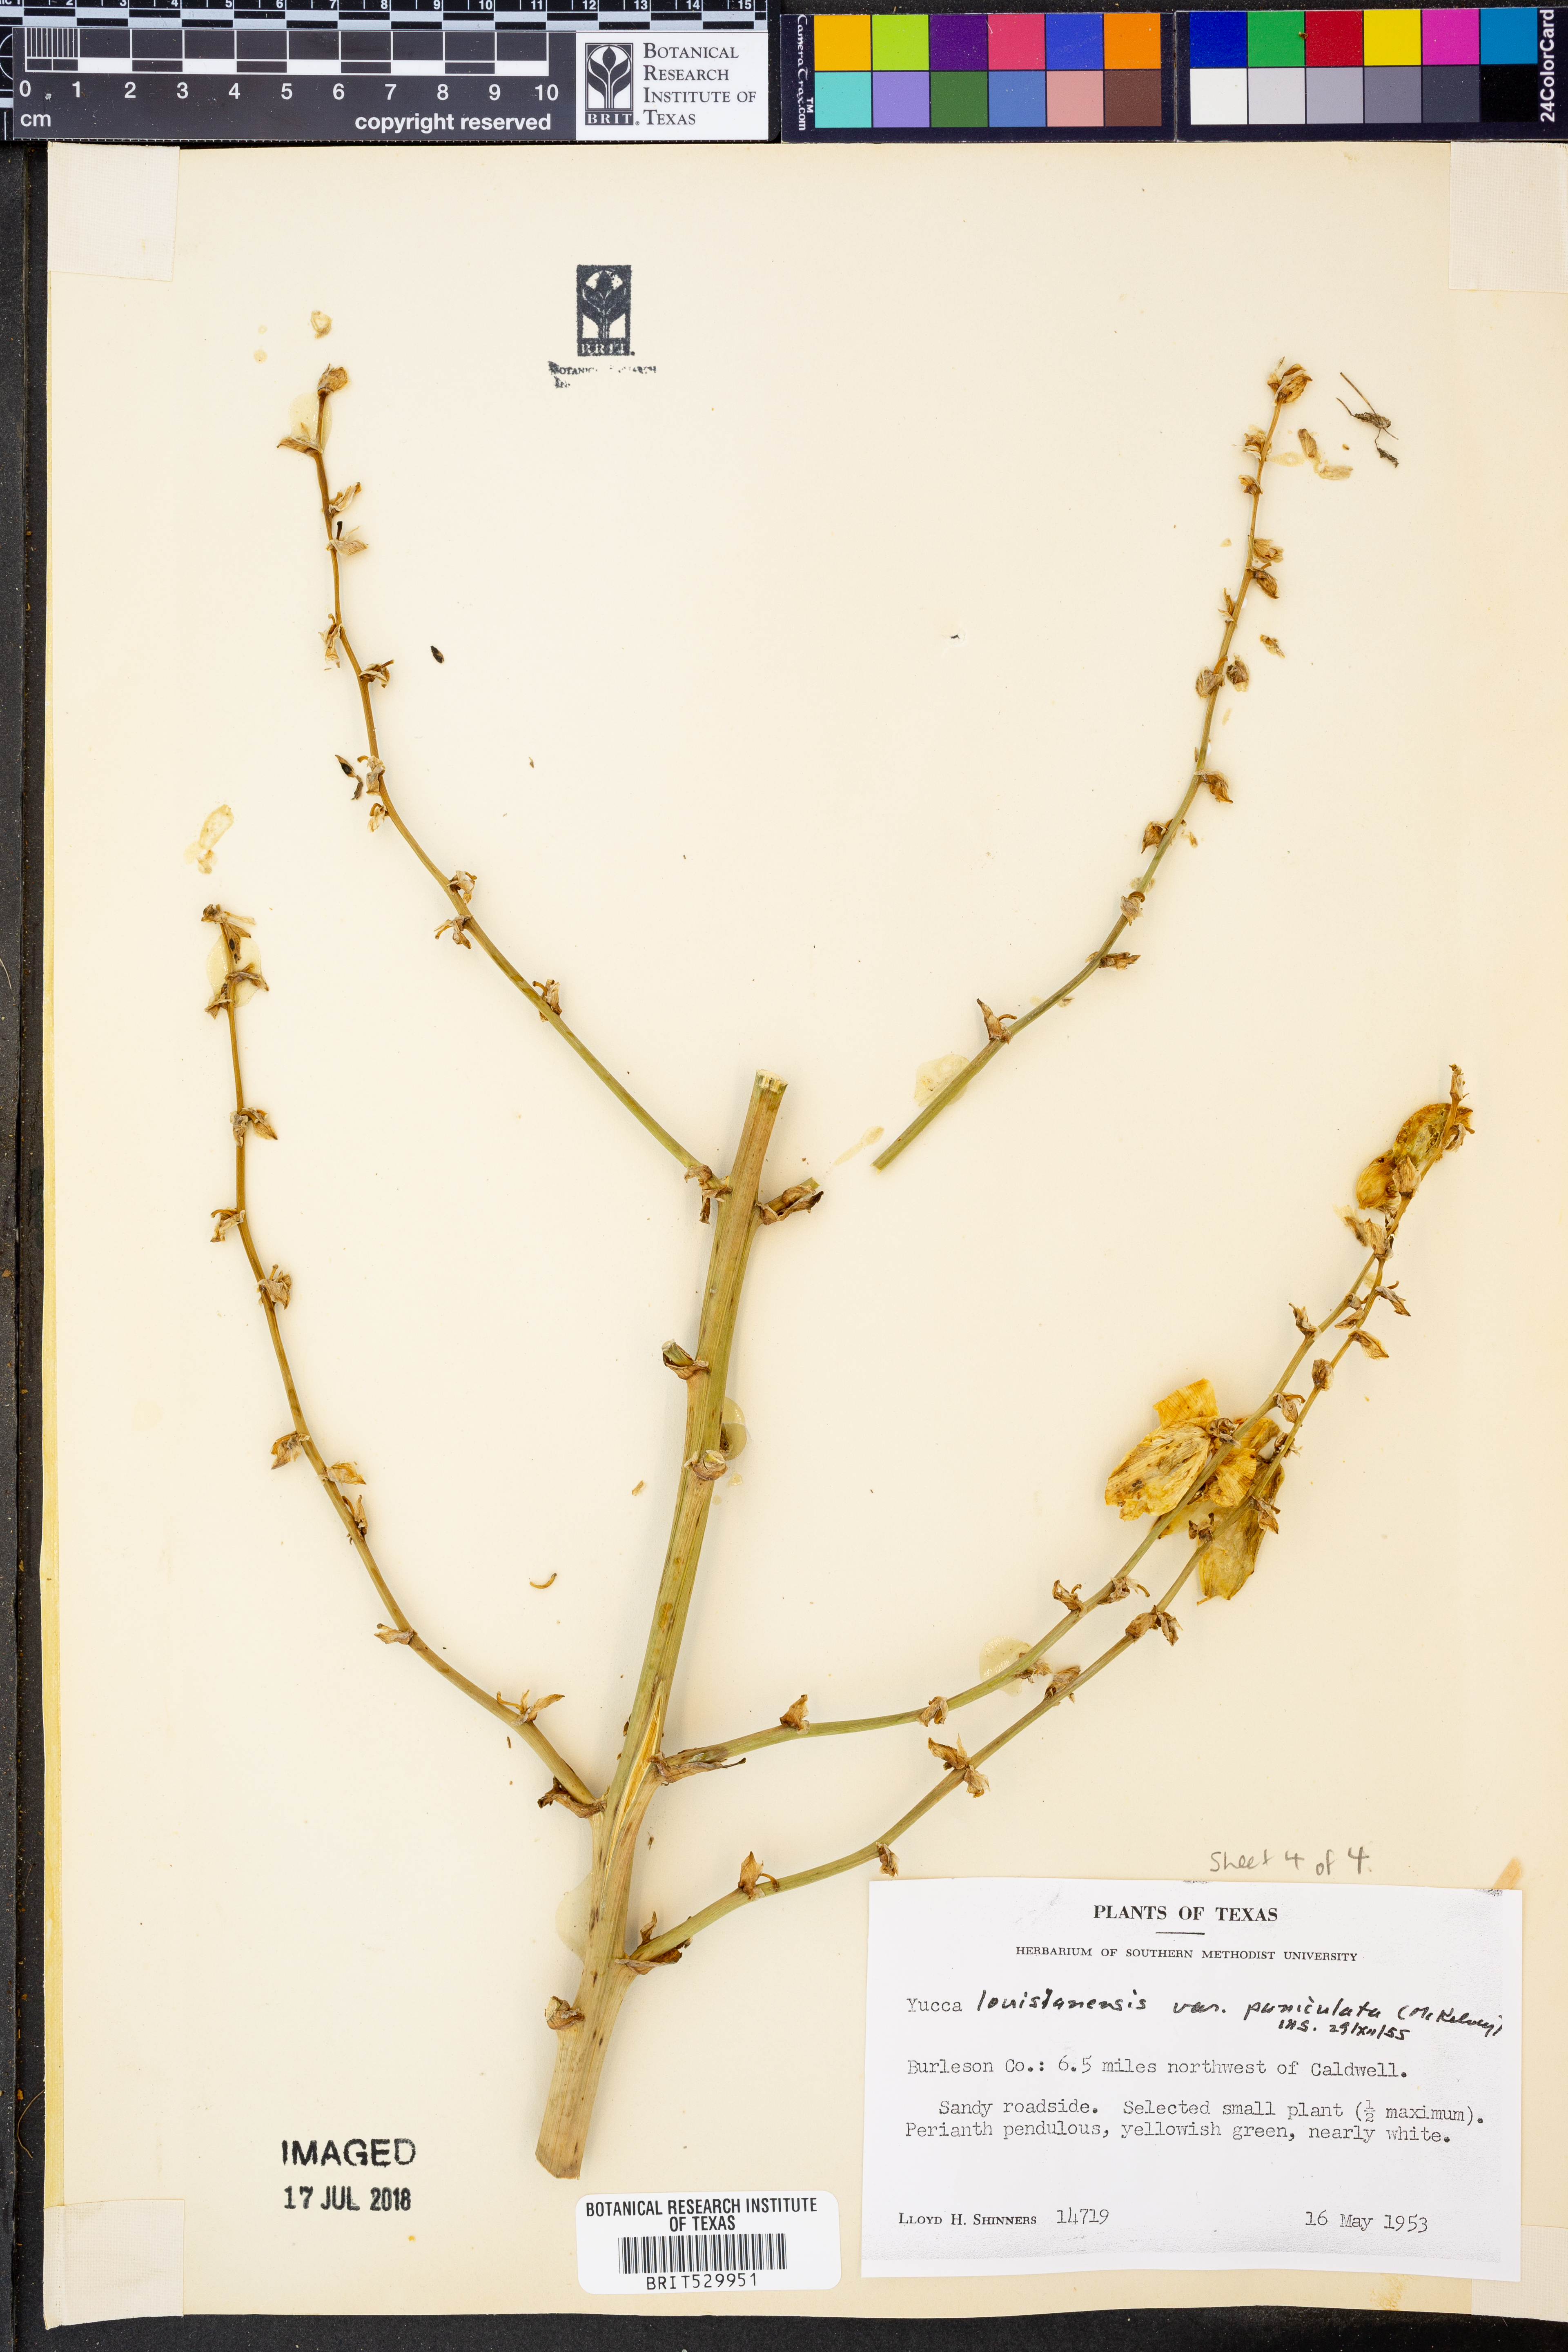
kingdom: Plantae
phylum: Tracheophyta
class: Liliopsida
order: Asparagales
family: Asparagaceae
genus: Yucca
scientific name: Yucca arkansana
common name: Arkansas yucca
